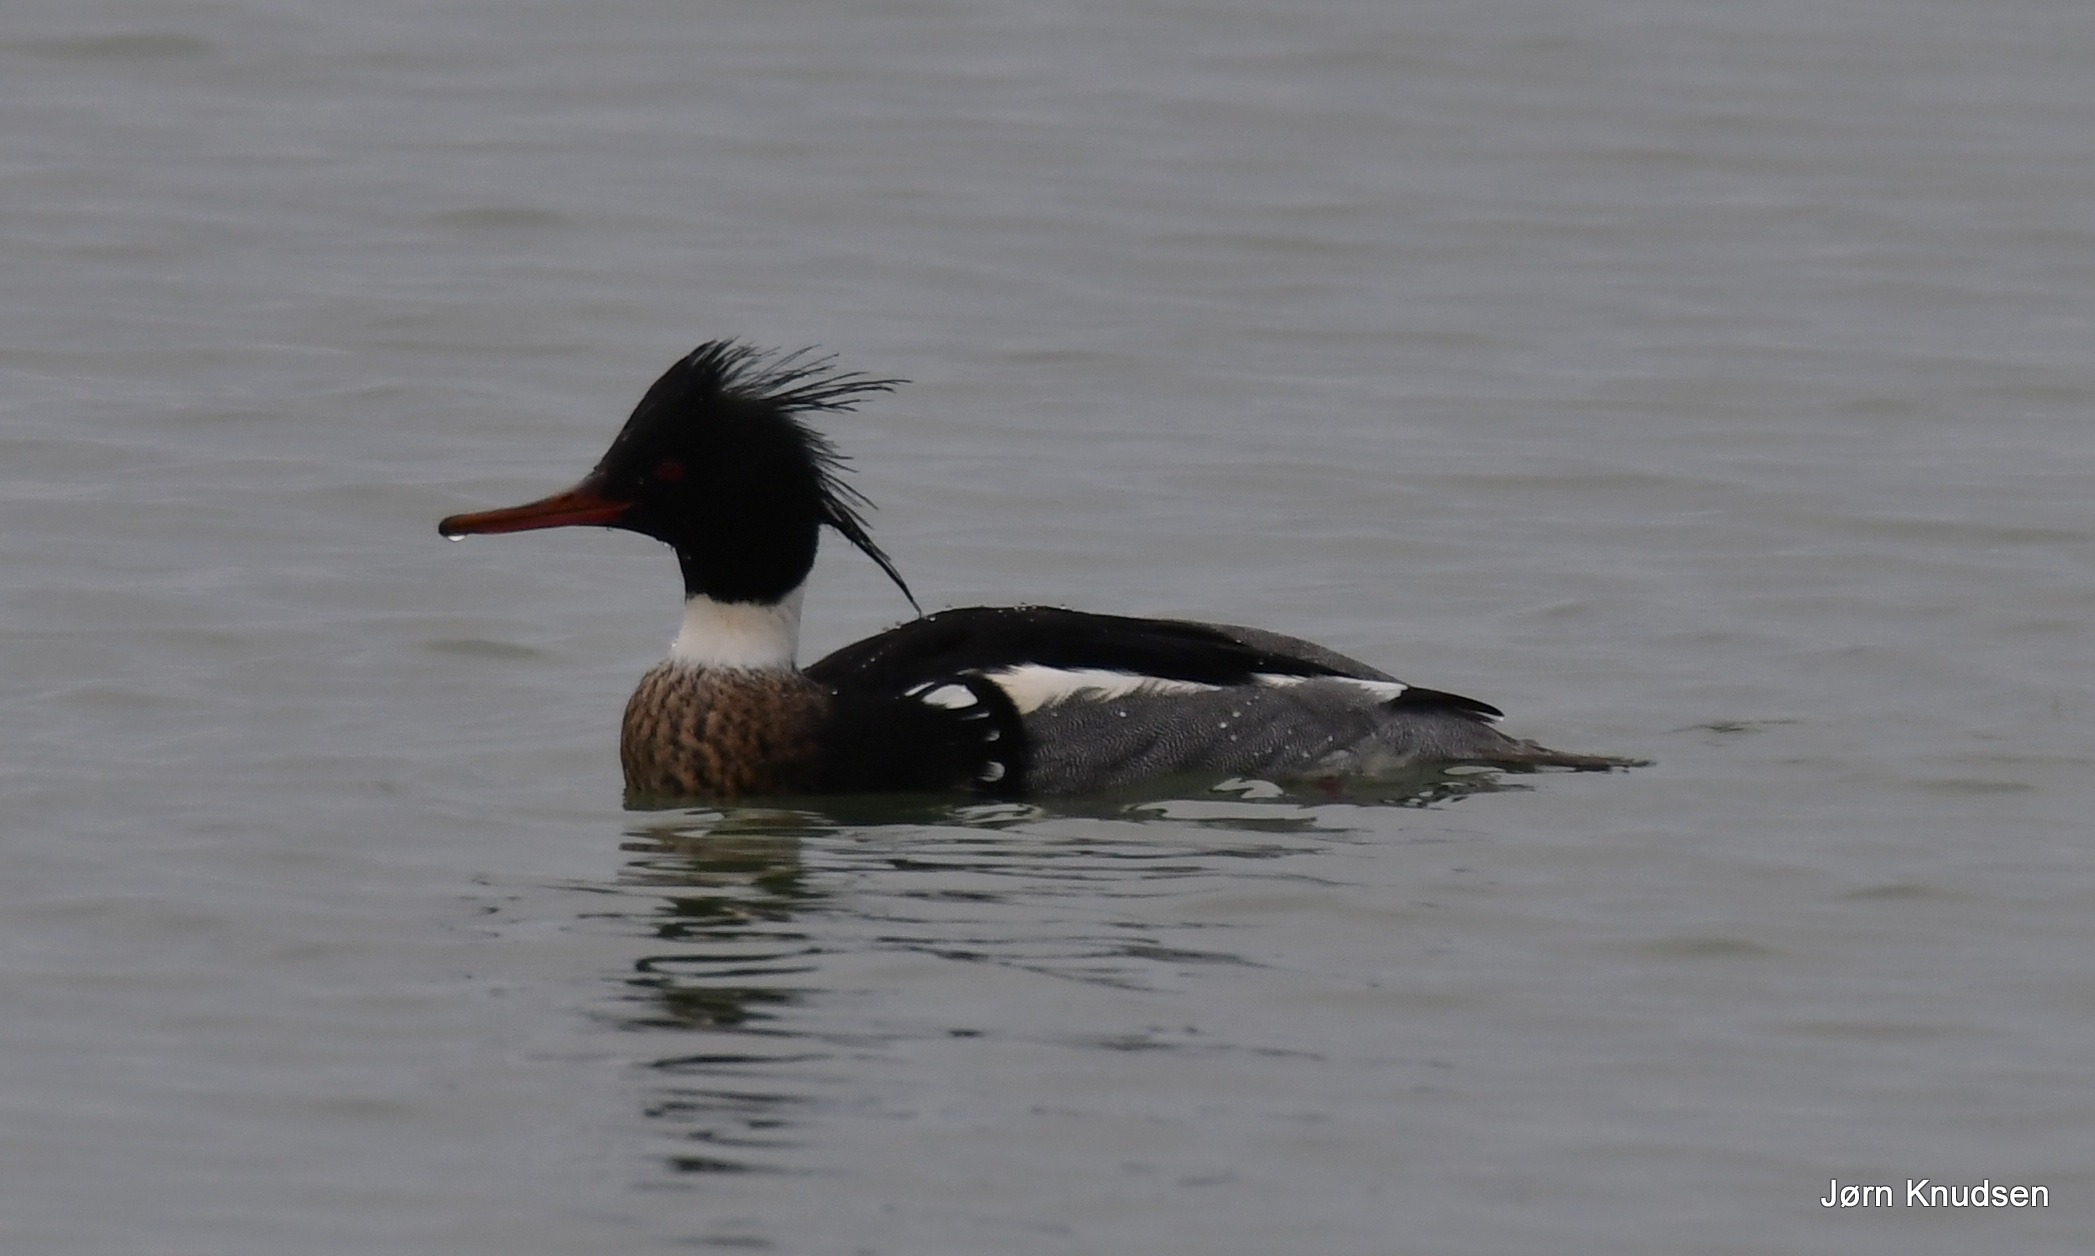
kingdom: Animalia
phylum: Chordata
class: Aves
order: Anseriformes
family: Anatidae
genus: Mergus
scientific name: Mergus serrator
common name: Toppet skallesluger
